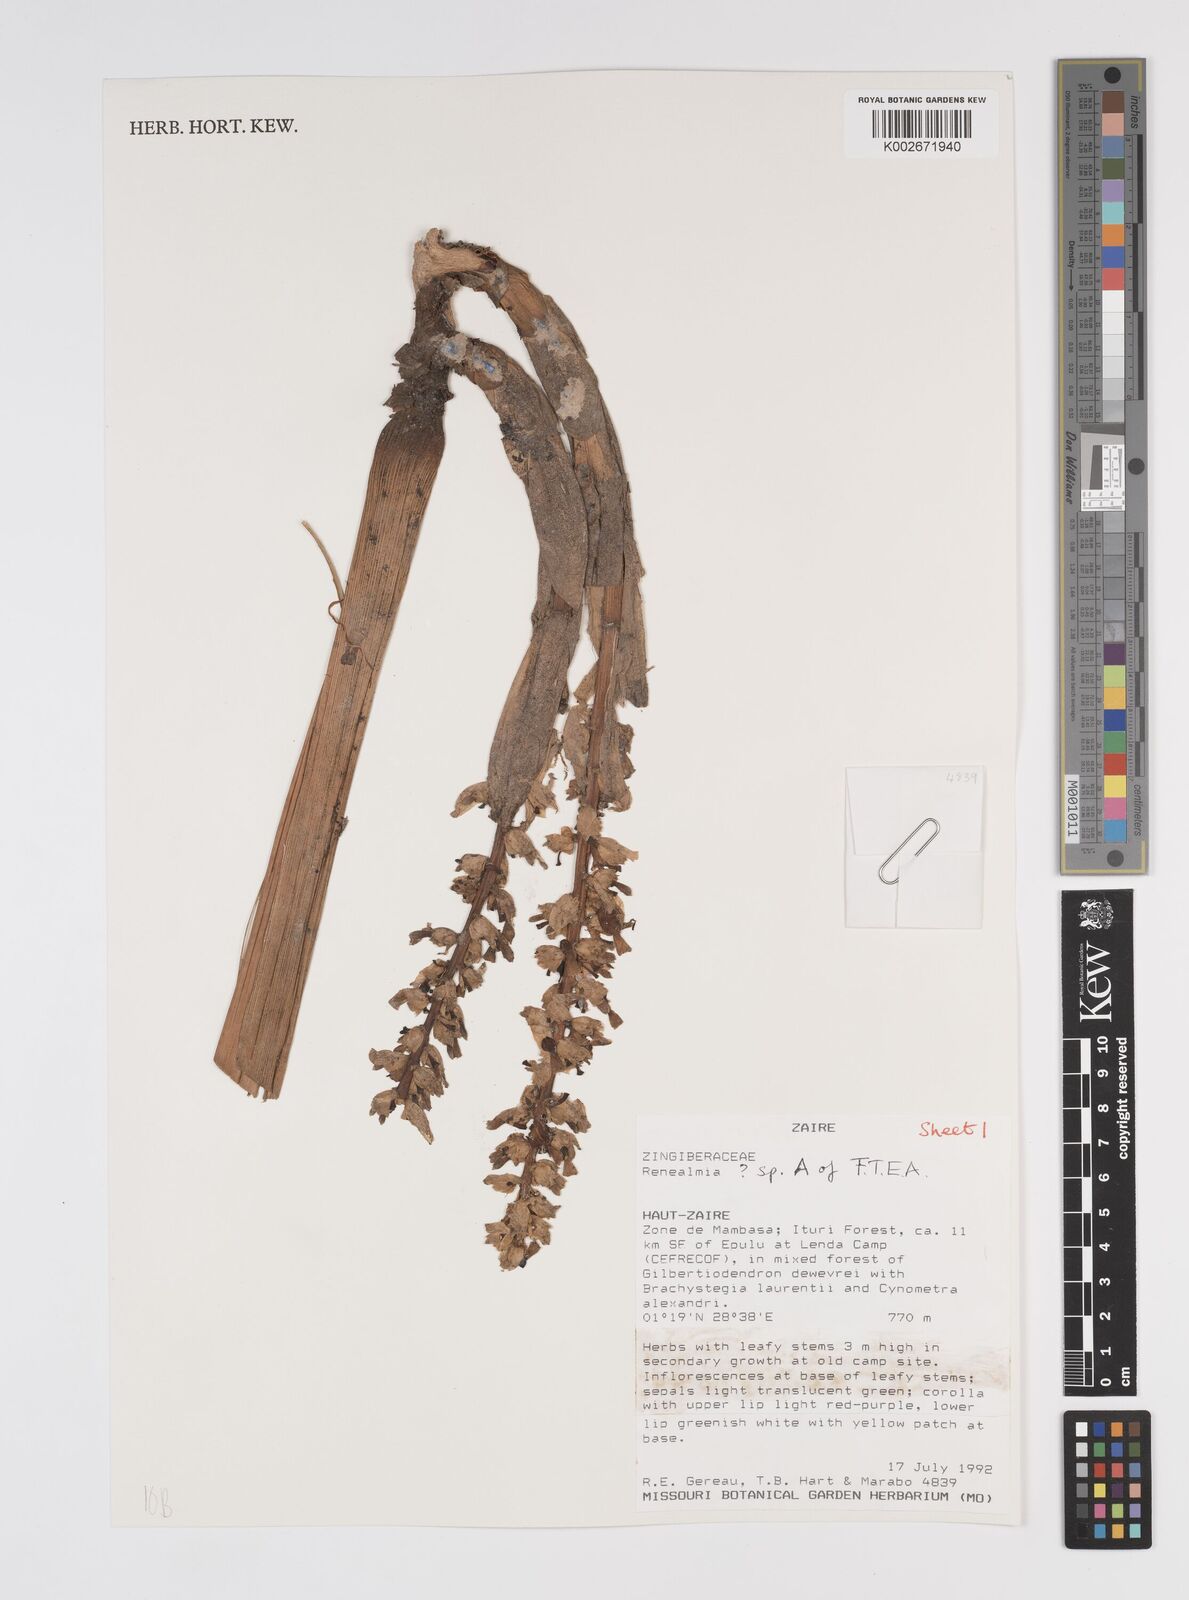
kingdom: Plantae
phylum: Tracheophyta
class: Liliopsida
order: Zingiberales
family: Zingiberaceae
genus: Renealmia
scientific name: Renealmia
